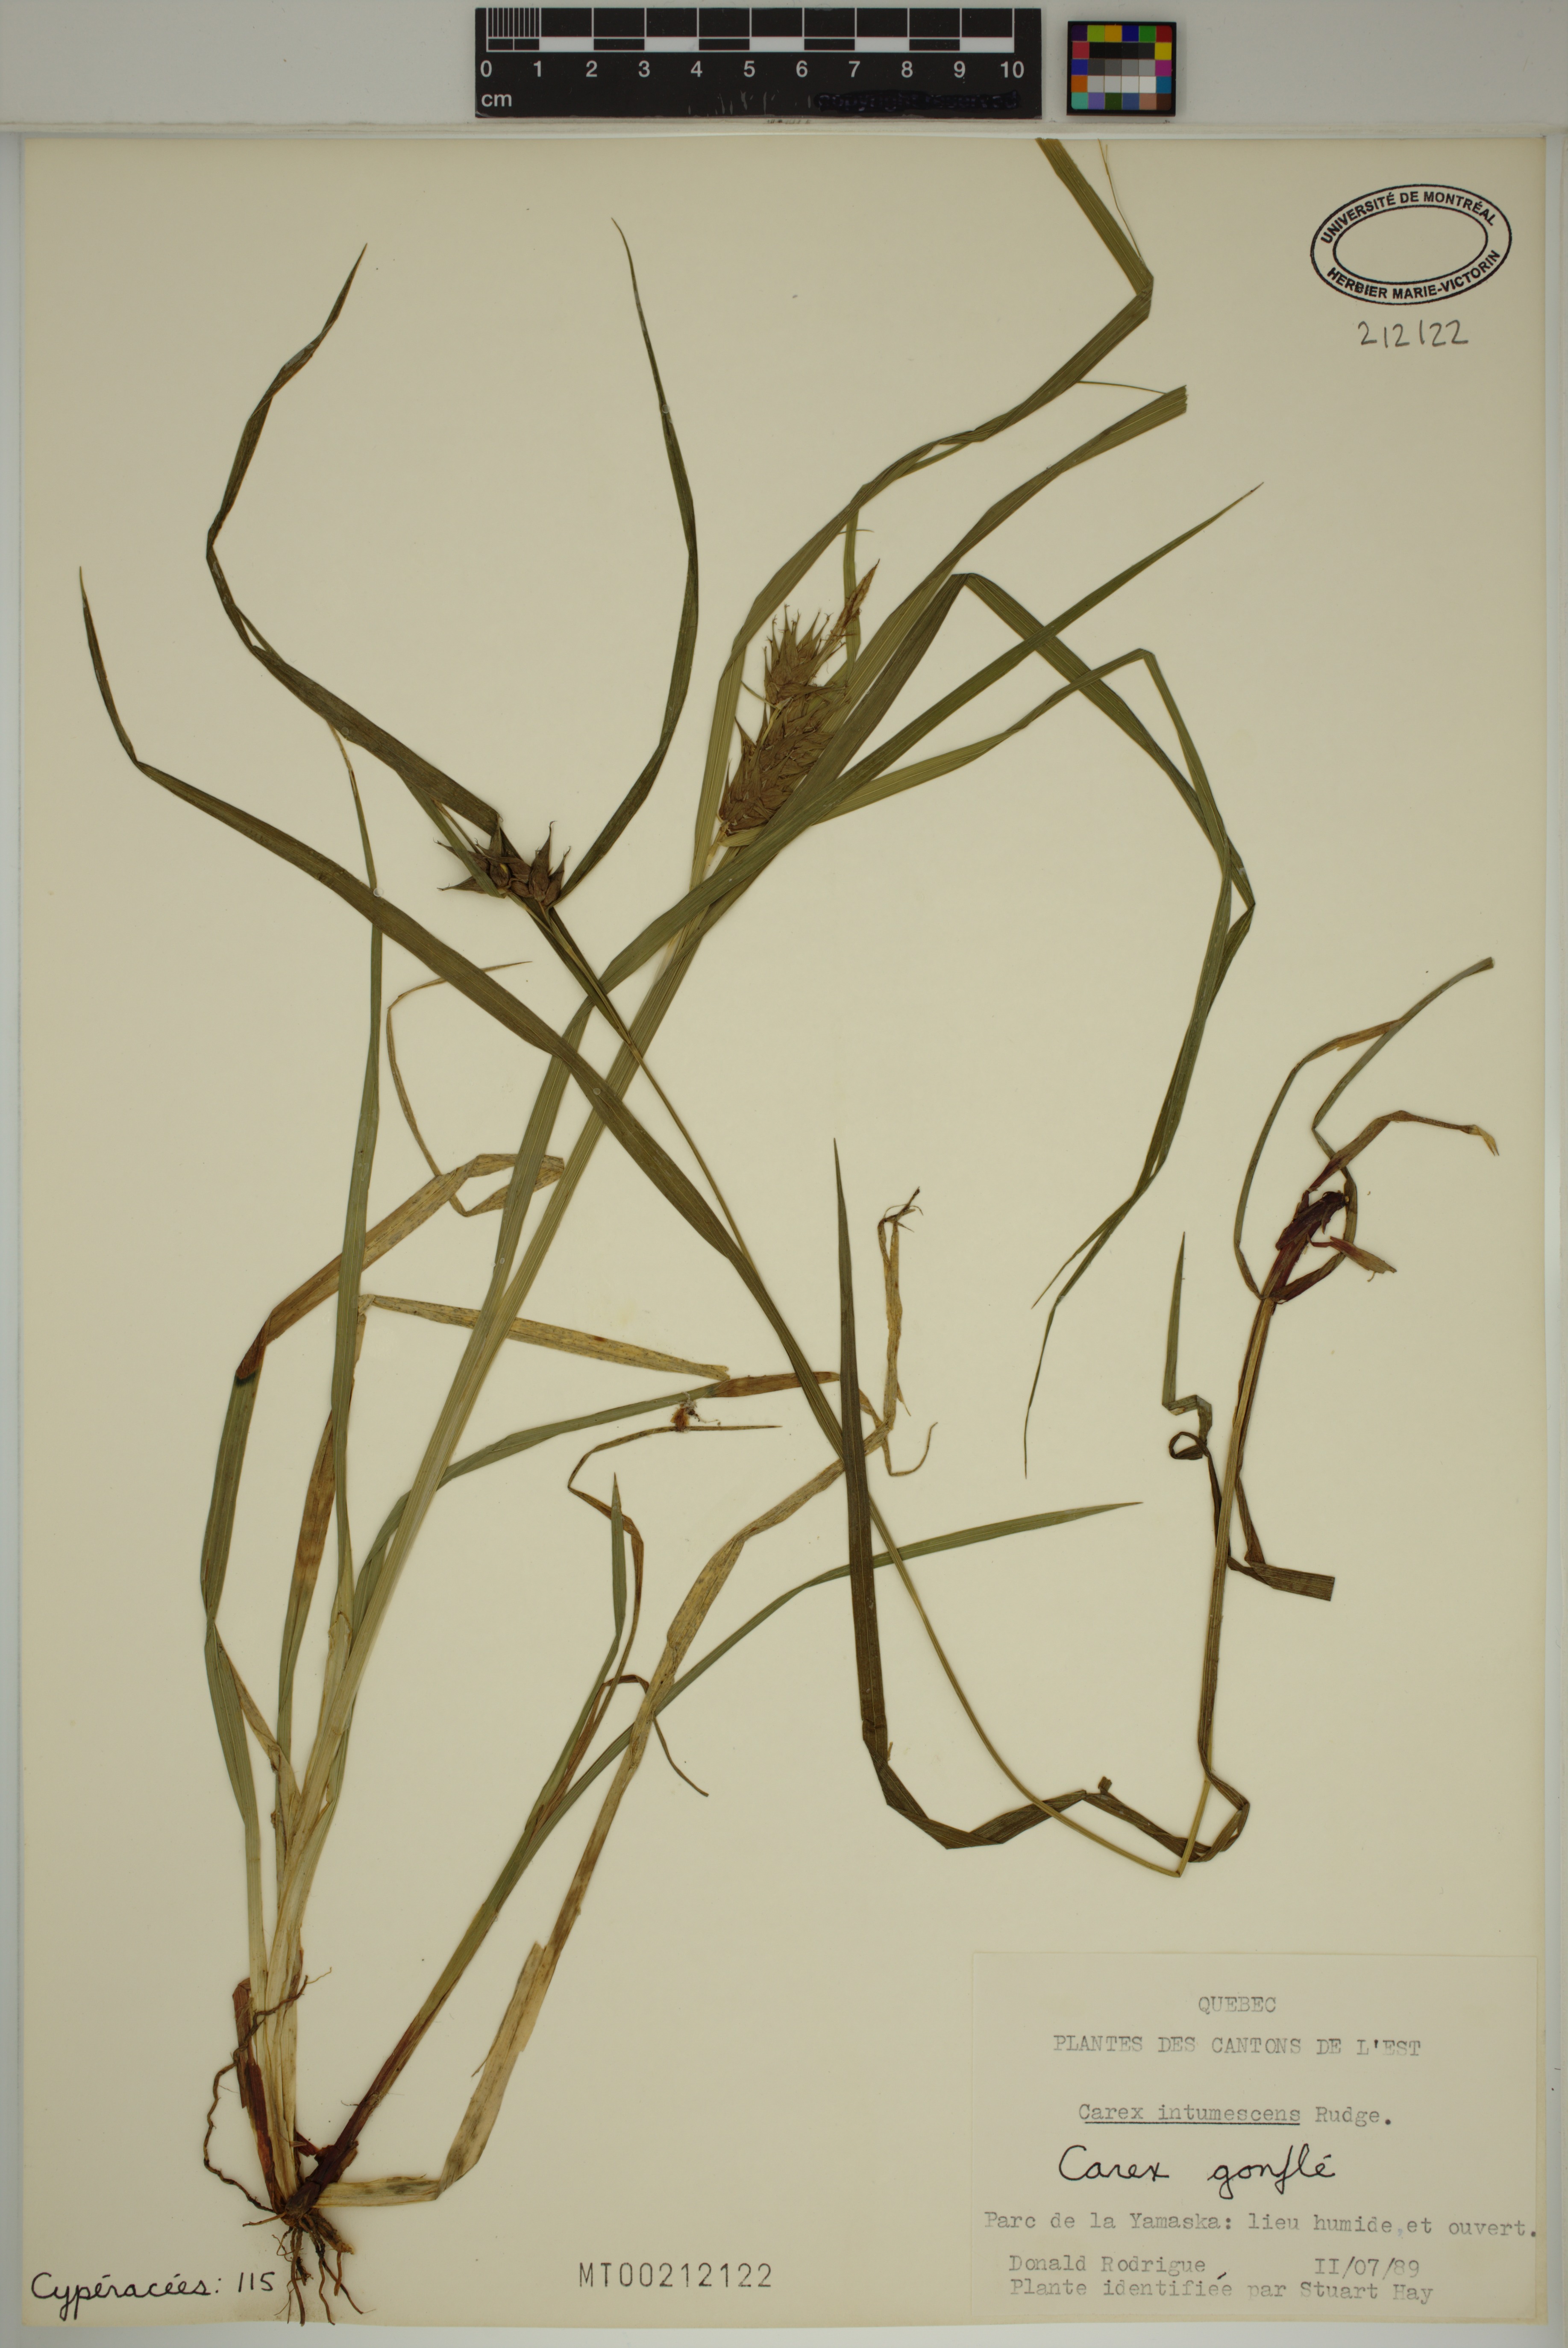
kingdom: Plantae
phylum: Tracheophyta
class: Liliopsida
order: Poales
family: Cyperaceae
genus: Carex
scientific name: Carex intumescens
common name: Greater bladder sedge
